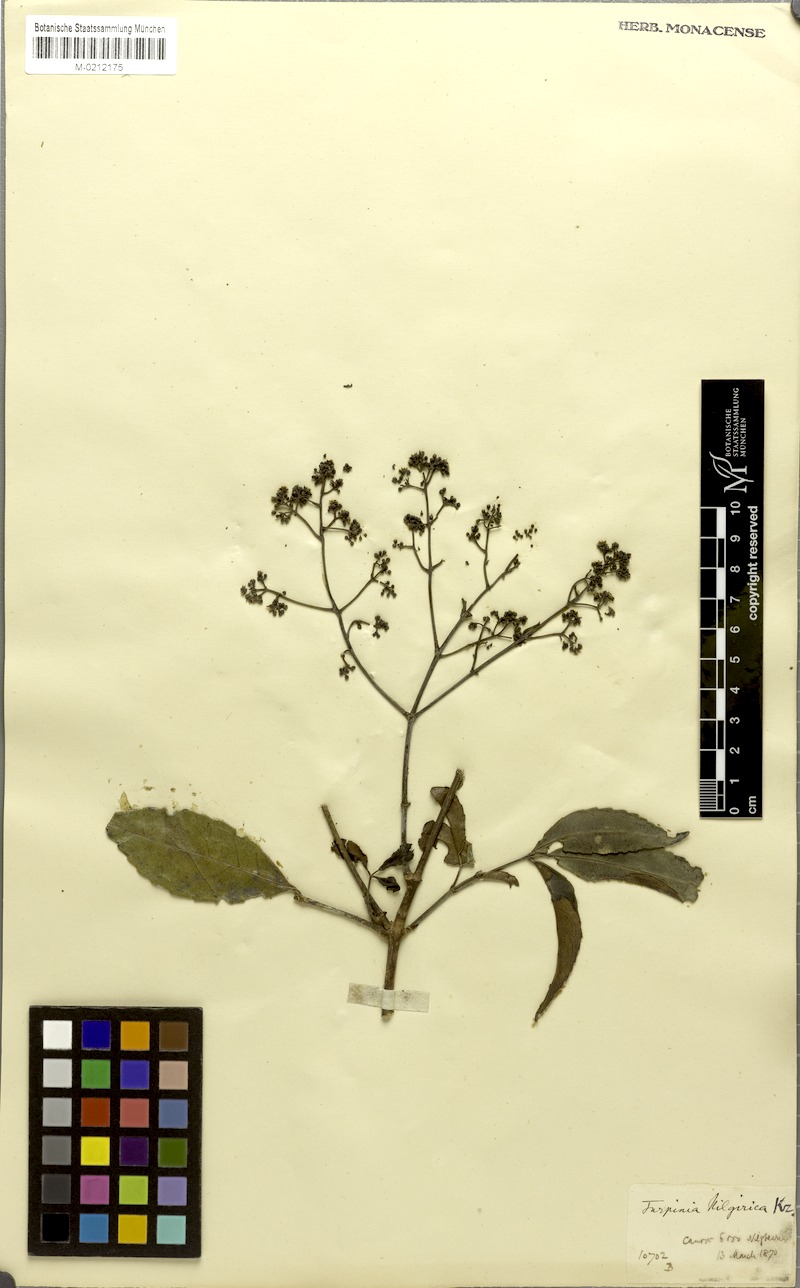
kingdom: Plantae
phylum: Tracheophyta
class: Magnoliopsida
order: Crossosomatales
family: Staphyleaceae
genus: Turpinia
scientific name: Turpinia
